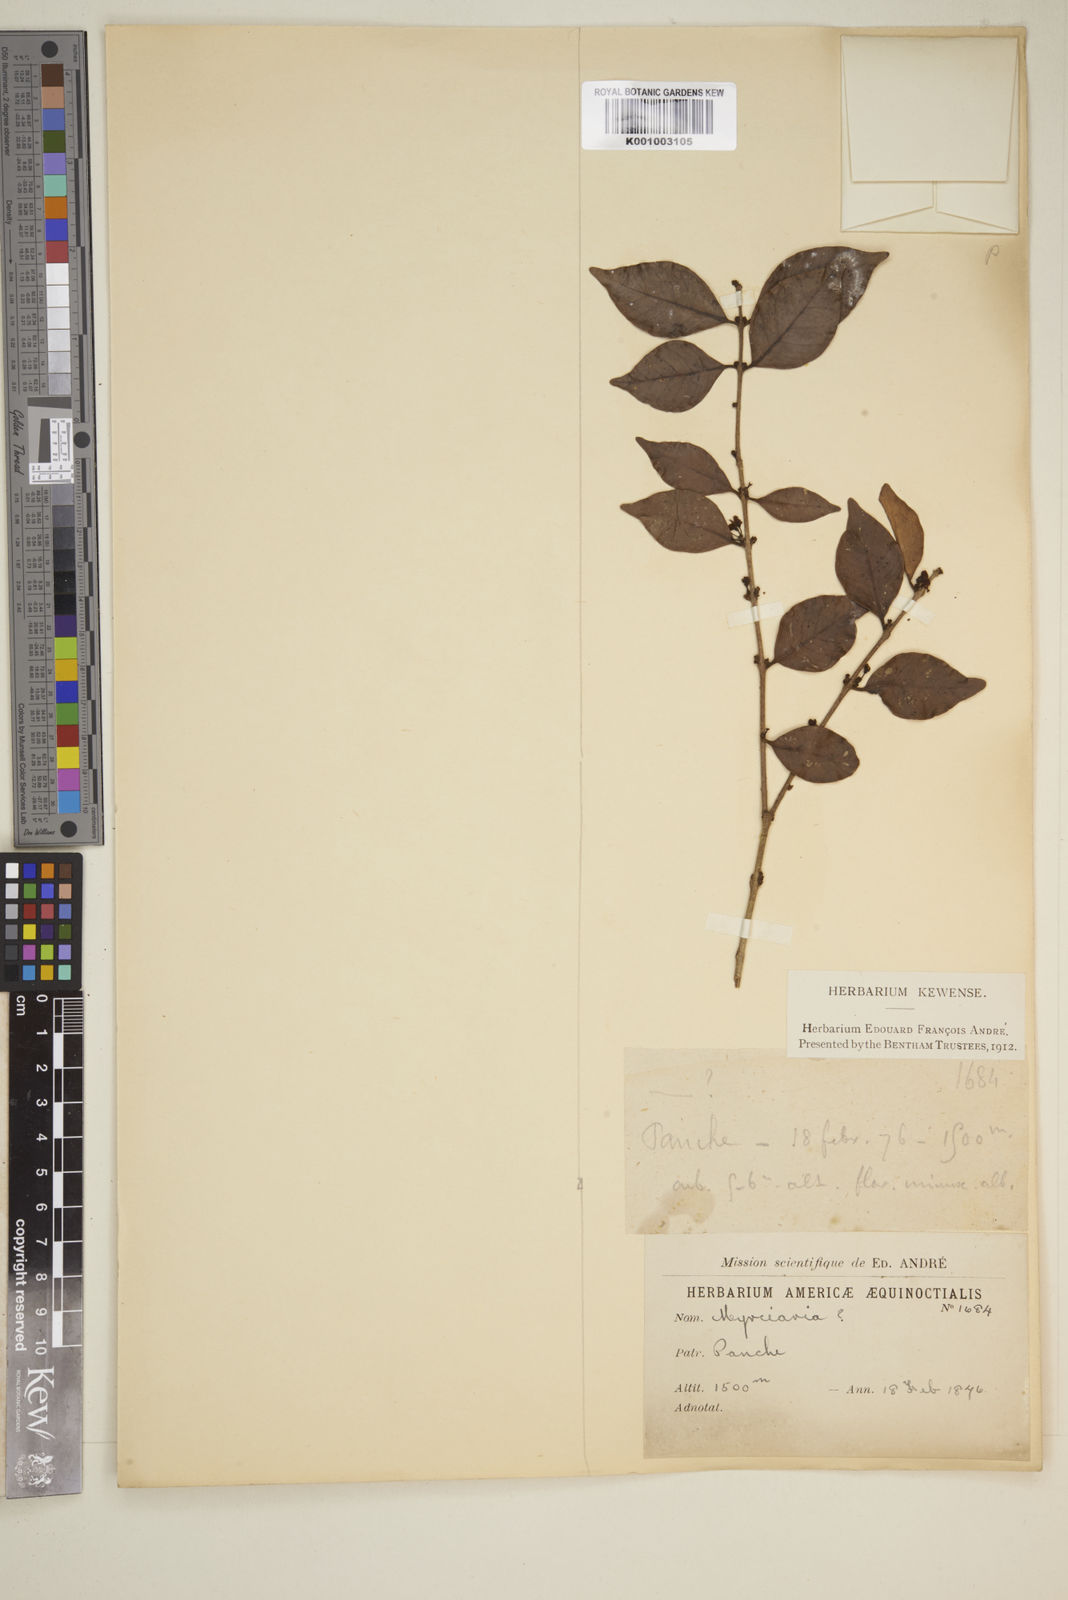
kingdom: Plantae
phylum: Tracheophyta
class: Magnoliopsida
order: Myrtales
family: Myrtaceae
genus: Eugenia
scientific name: Eugenia
